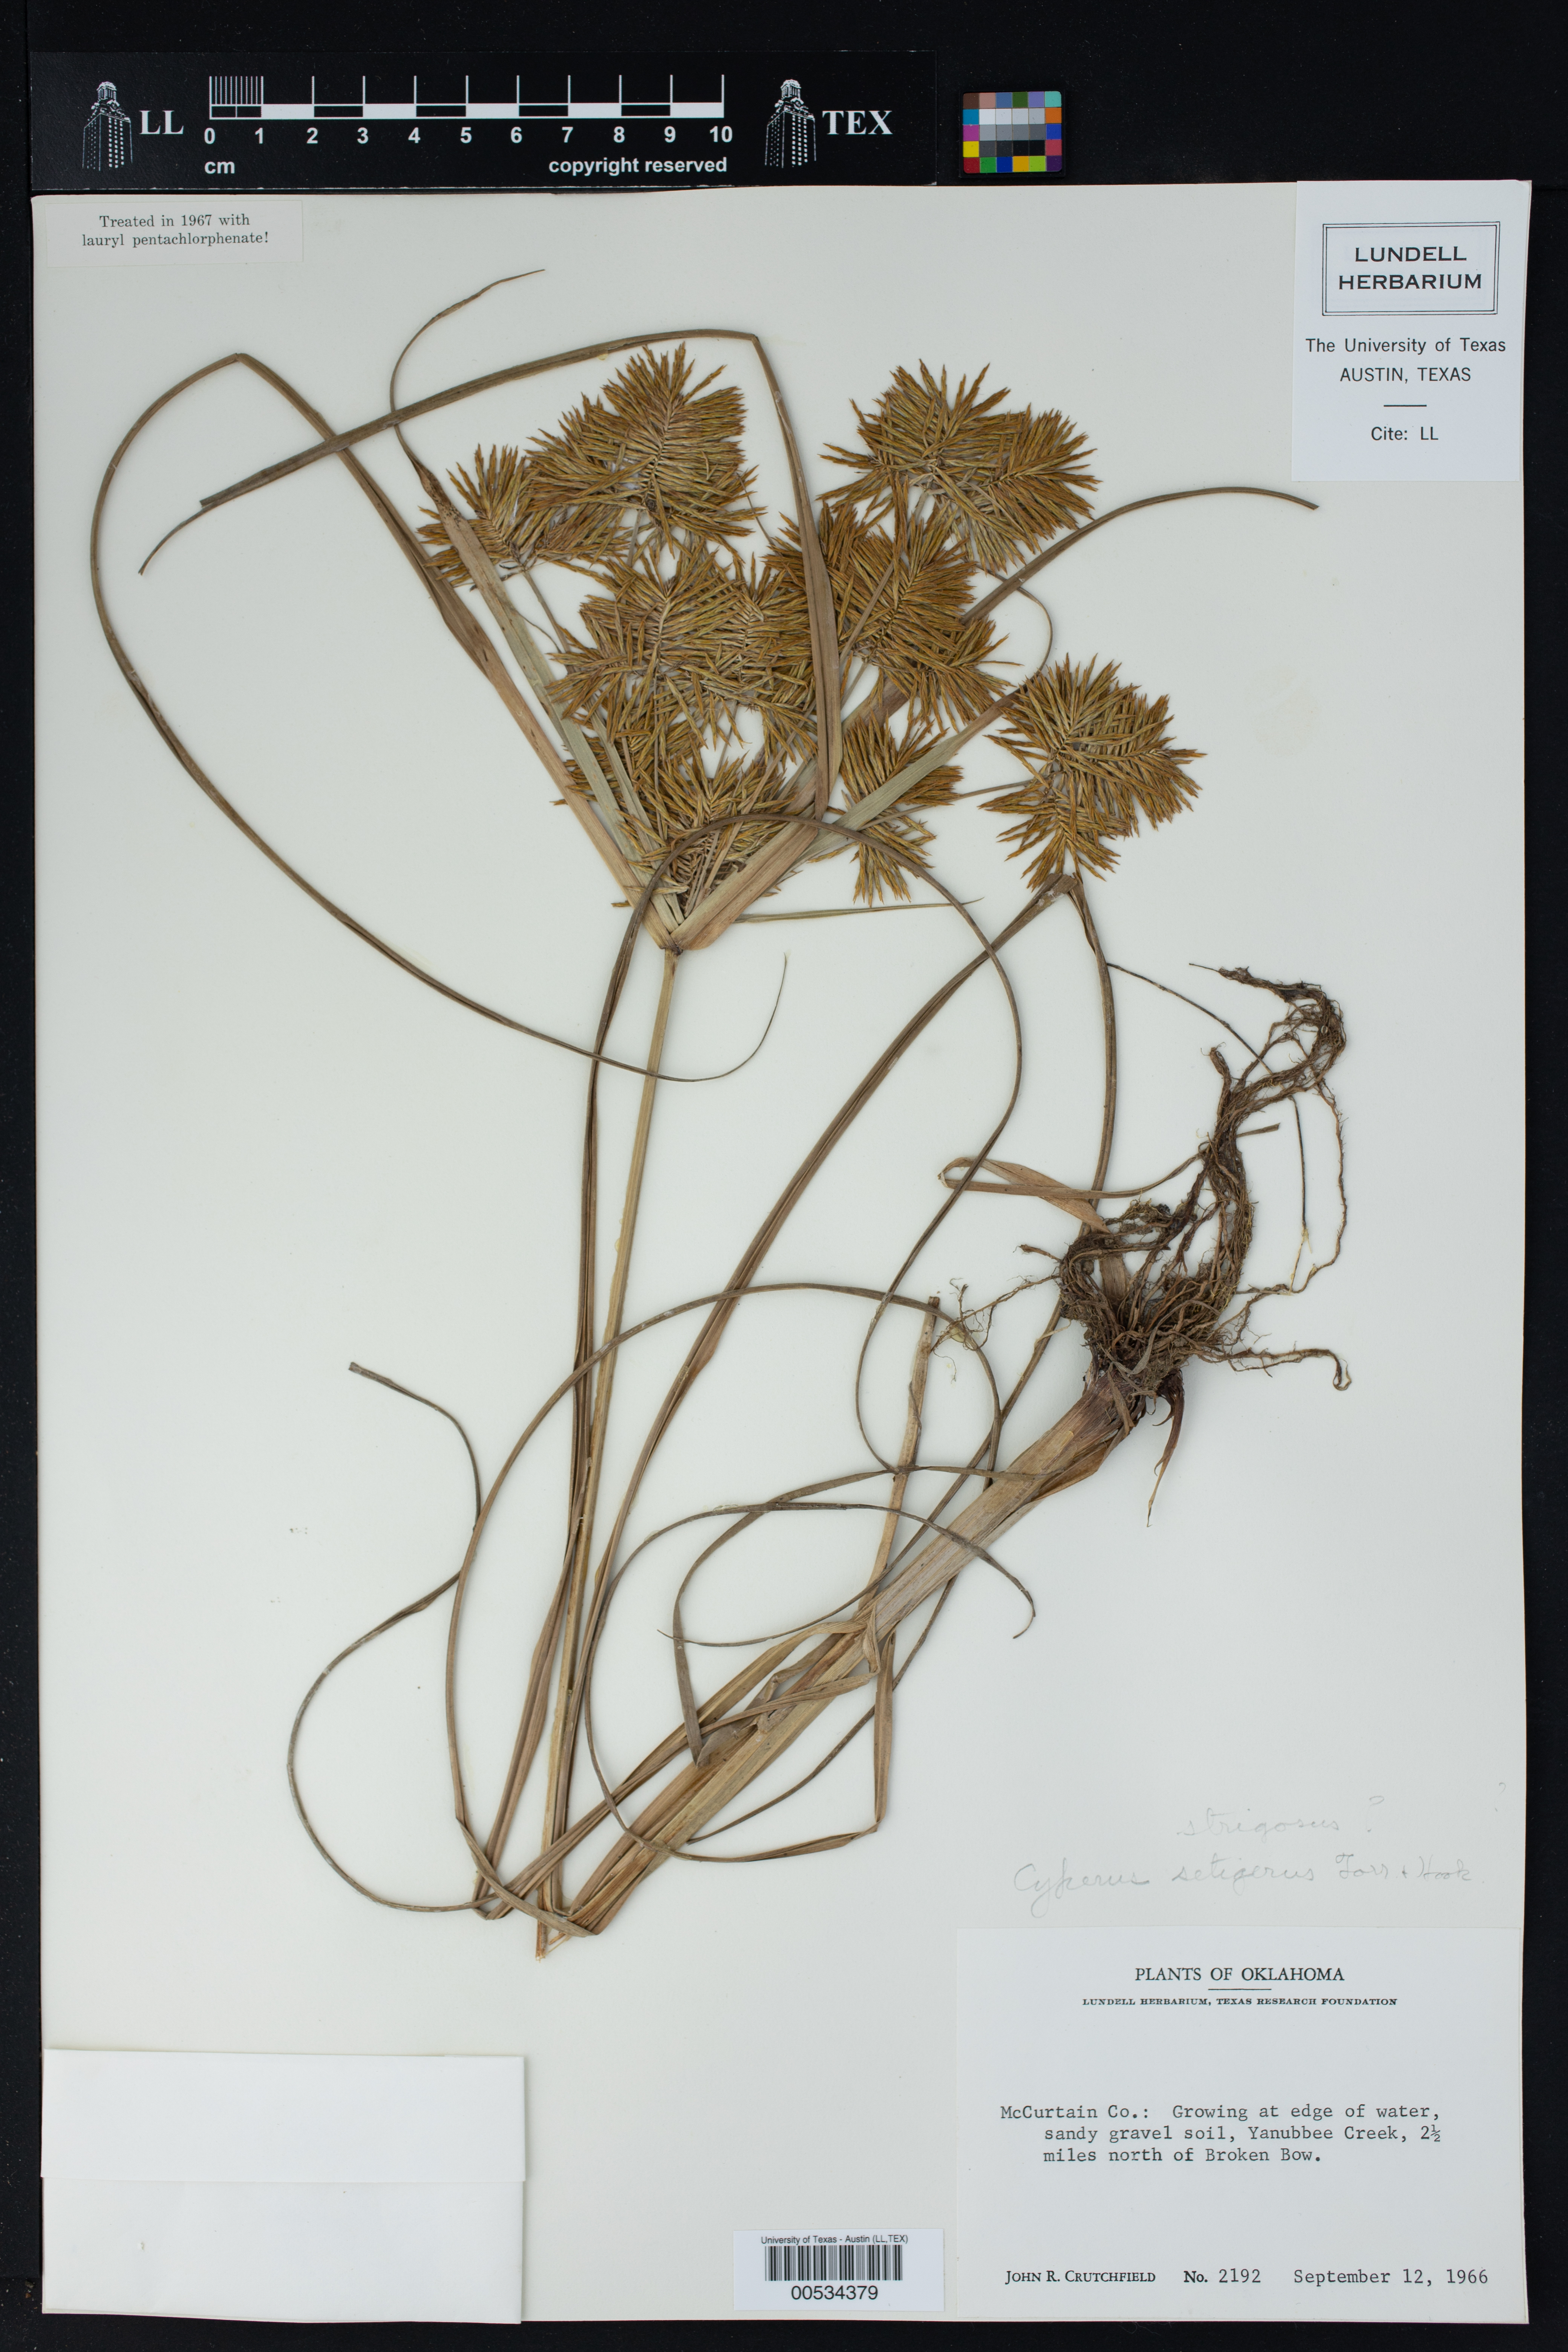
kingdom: Plantae
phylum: Tracheophyta
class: Liliopsida
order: Poales
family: Cyperaceae
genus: Cyperus
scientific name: Cyperus setigerus
